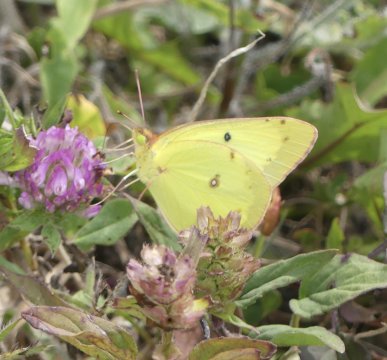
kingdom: Animalia
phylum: Arthropoda
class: Insecta
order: Lepidoptera
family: Pieridae
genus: Colias
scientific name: Colias philodice
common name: Clouded Sulphur
